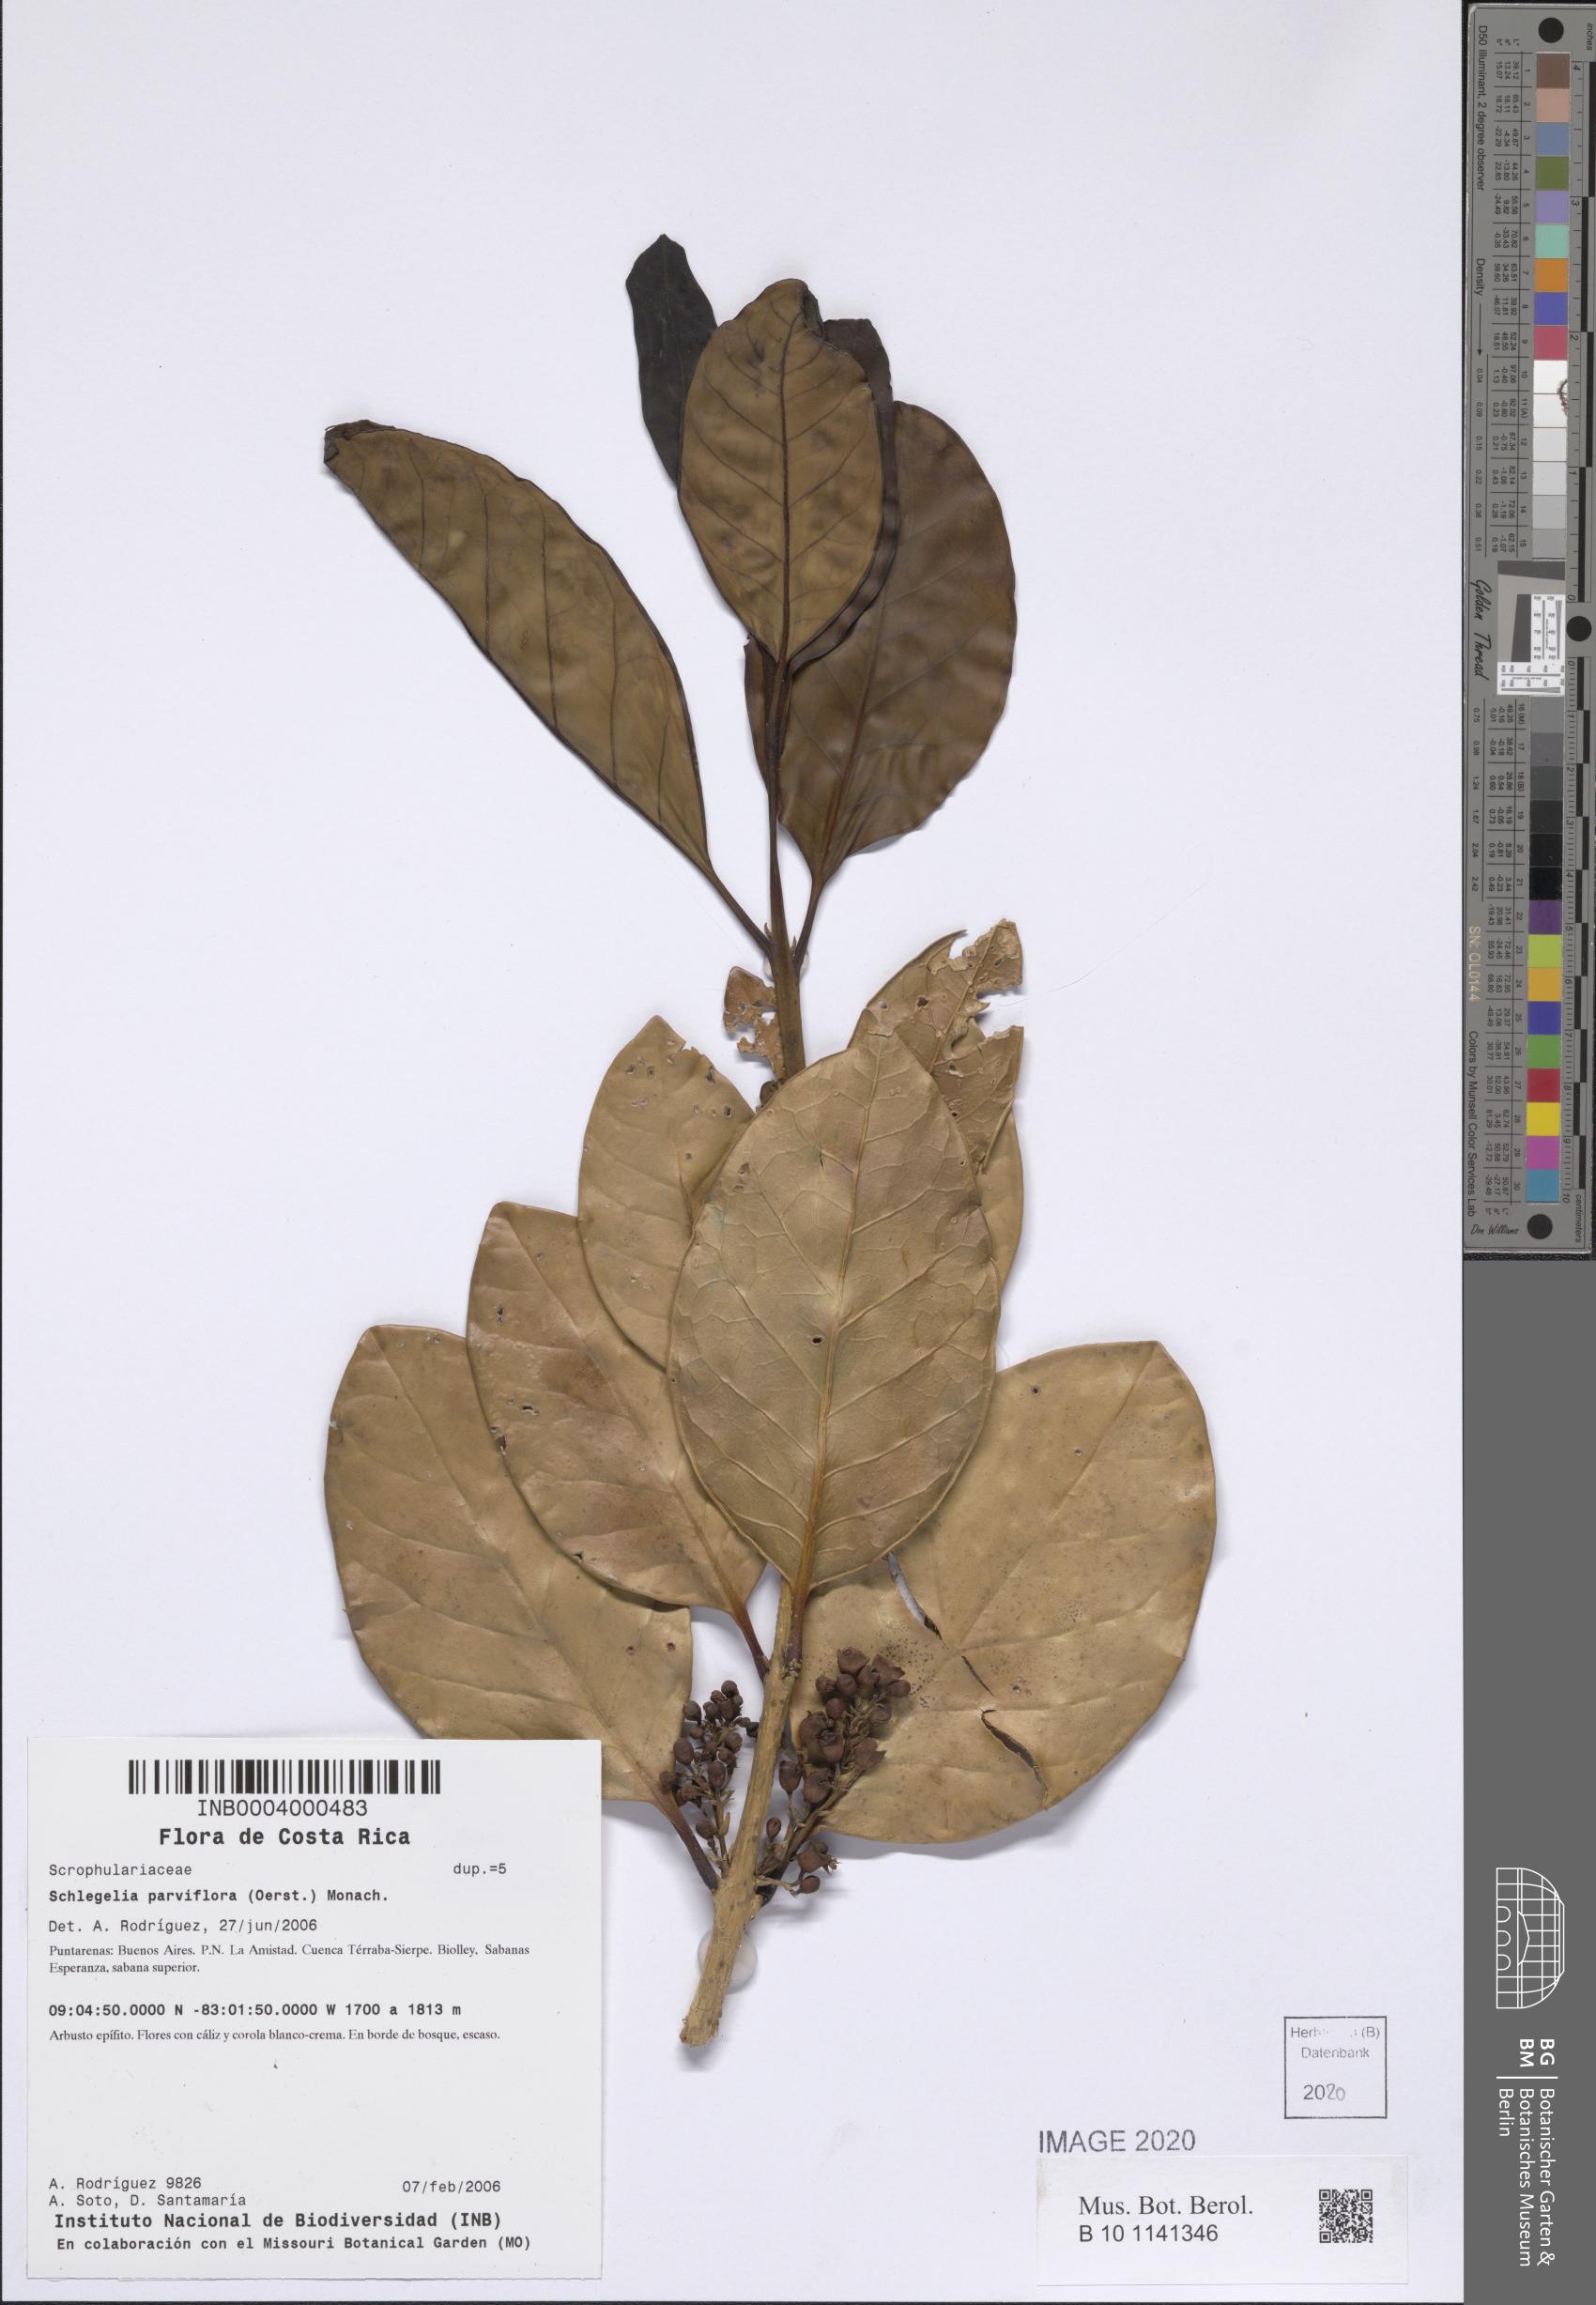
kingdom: Plantae
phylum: Tracheophyta
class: Magnoliopsida
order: Lamiales
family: Schlegeliaceae
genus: Schlegelia
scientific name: Schlegelia parviflora
